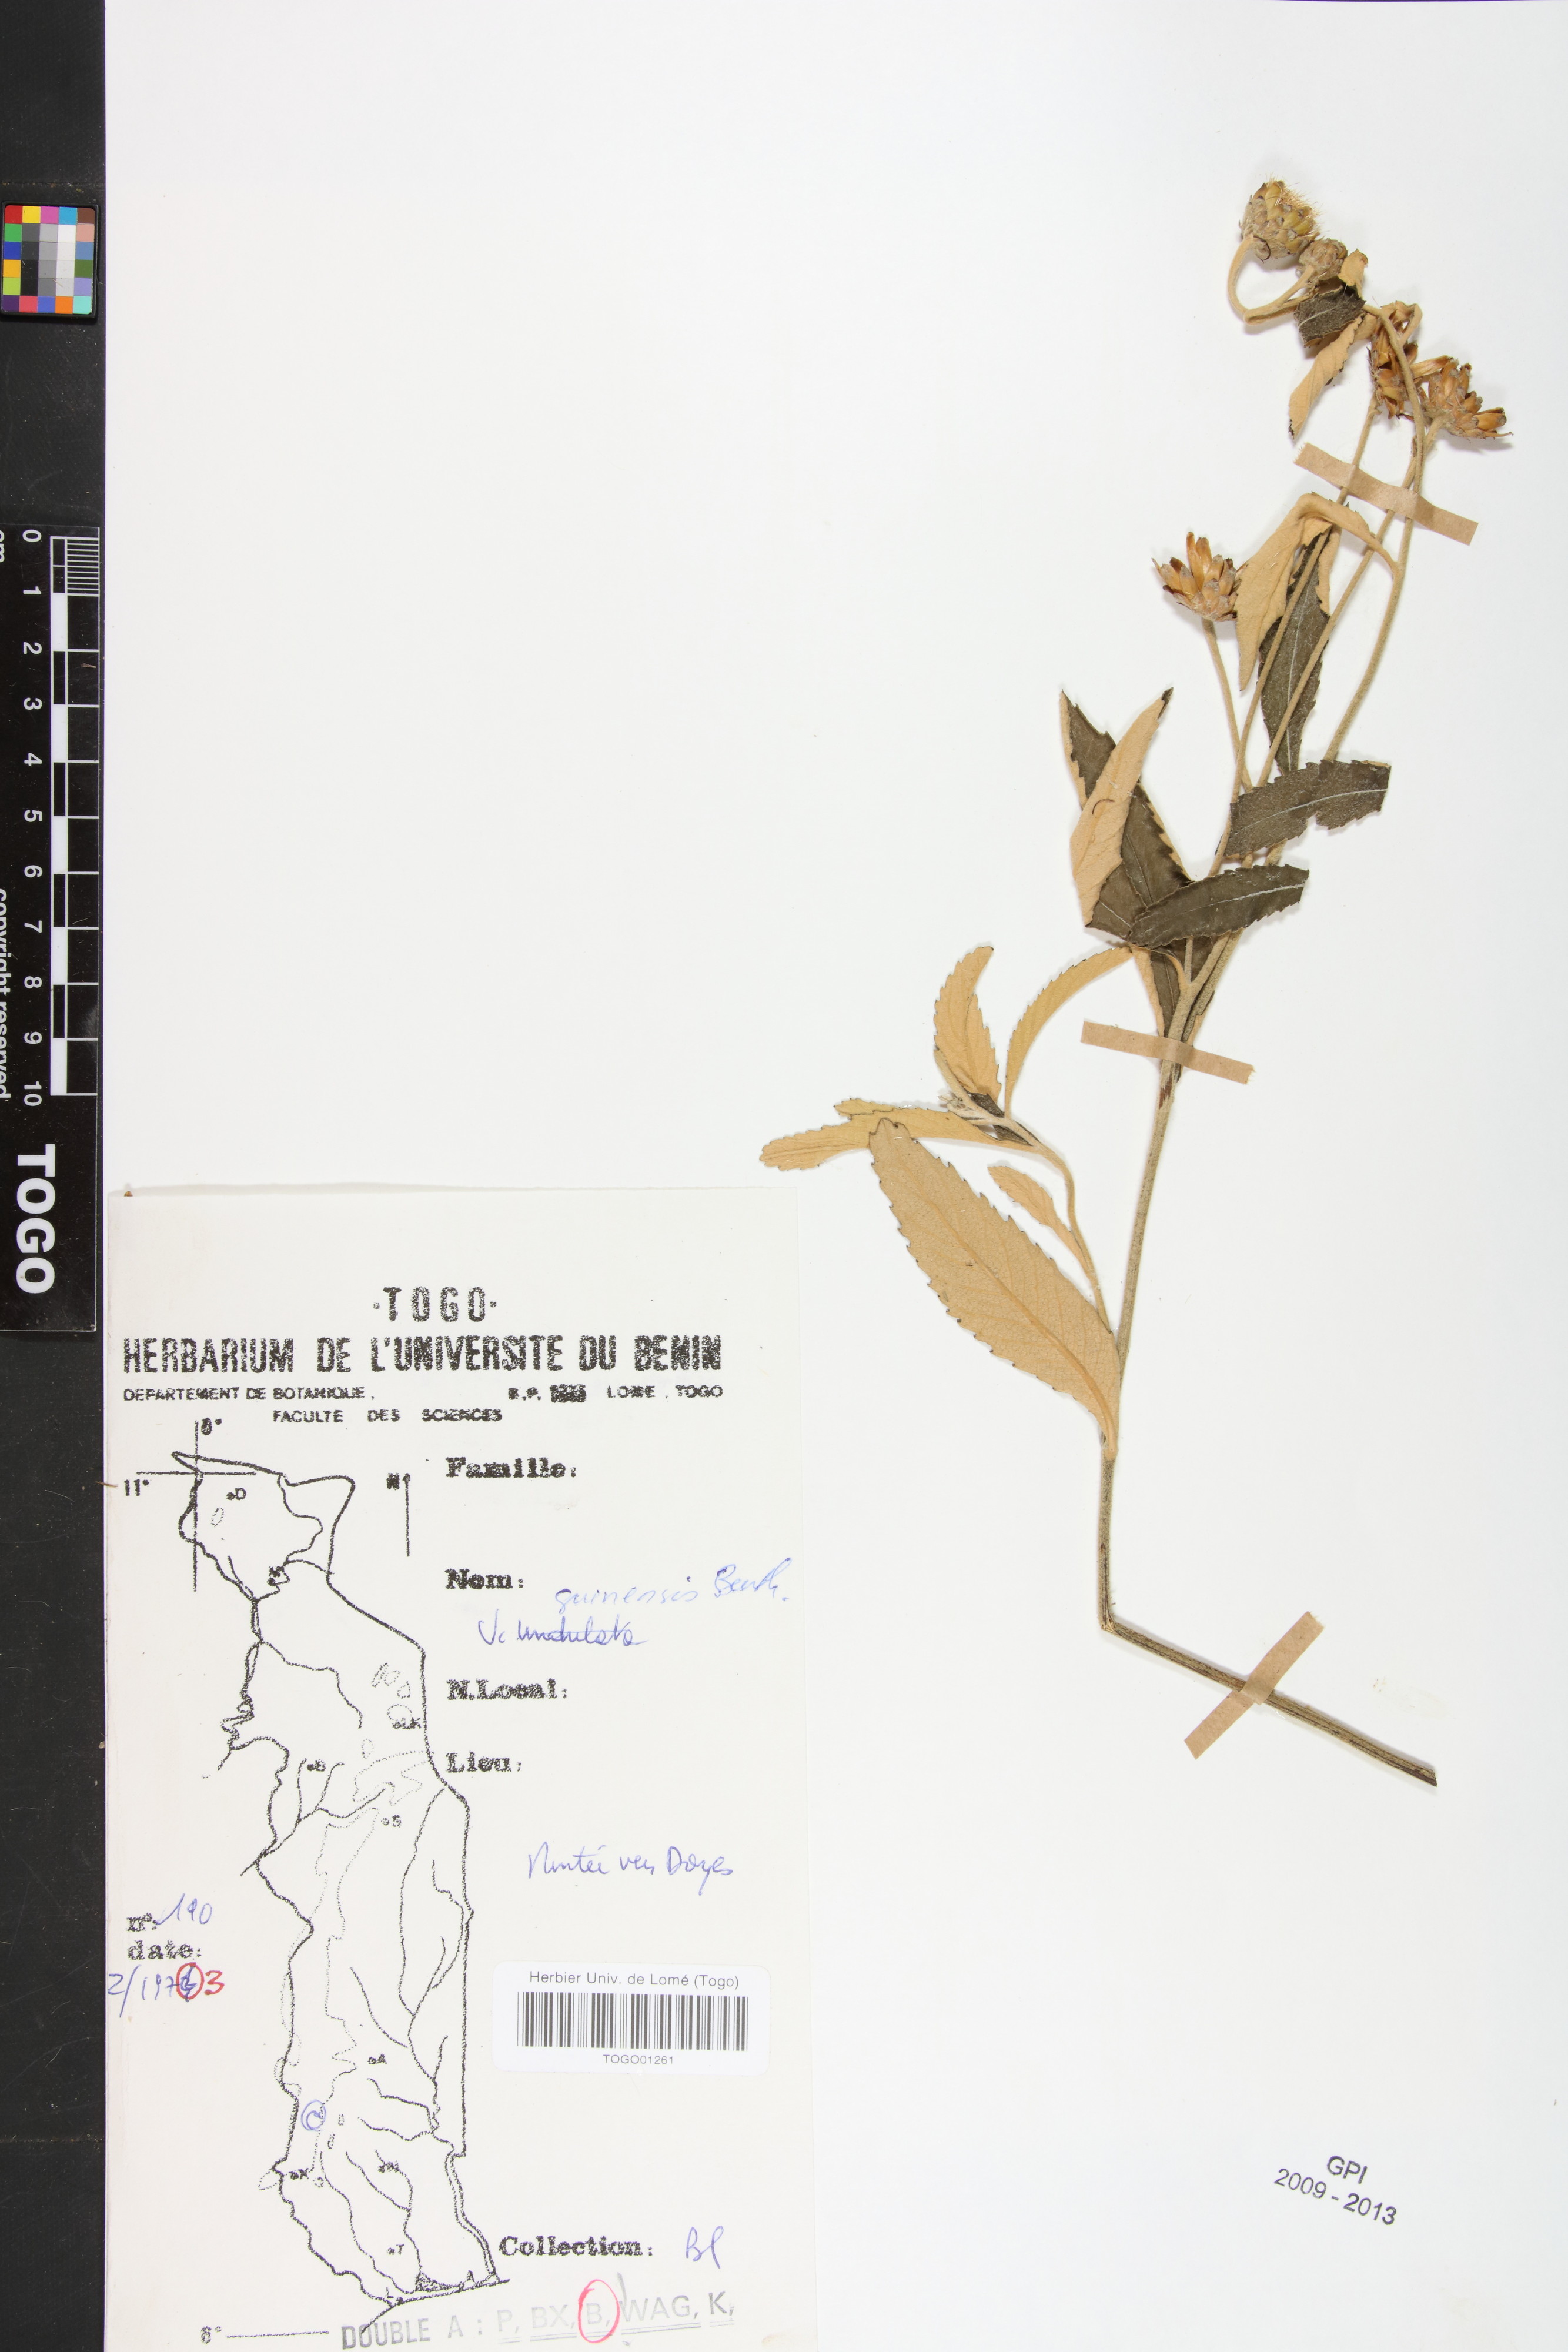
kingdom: Plantae
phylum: Tracheophyta
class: Magnoliopsida
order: Asterales
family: Asteraceae
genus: Baccharoides
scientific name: Baccharoides guineensis
